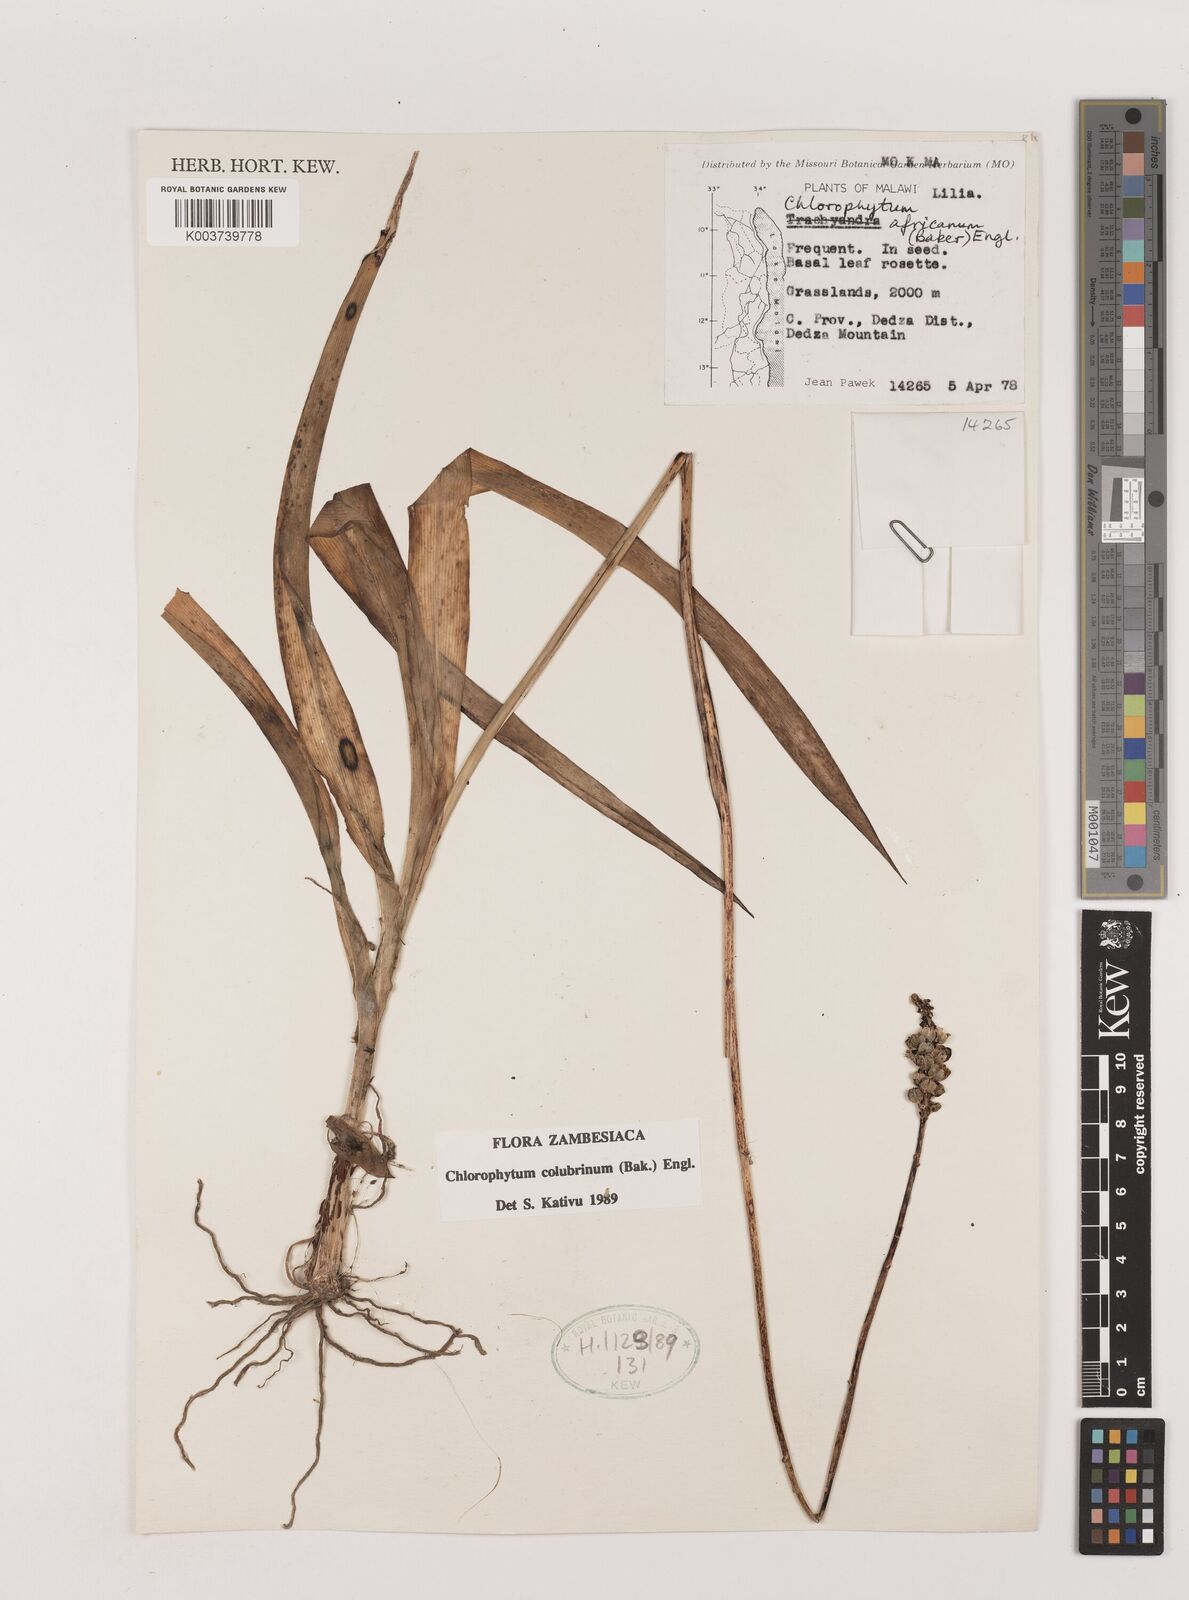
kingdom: Plantae
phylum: Tracheophyta
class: Liliopsida
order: Asparagales
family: Asparagaceae
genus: Chlorophytum
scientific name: Chlorophytum colubrinum
